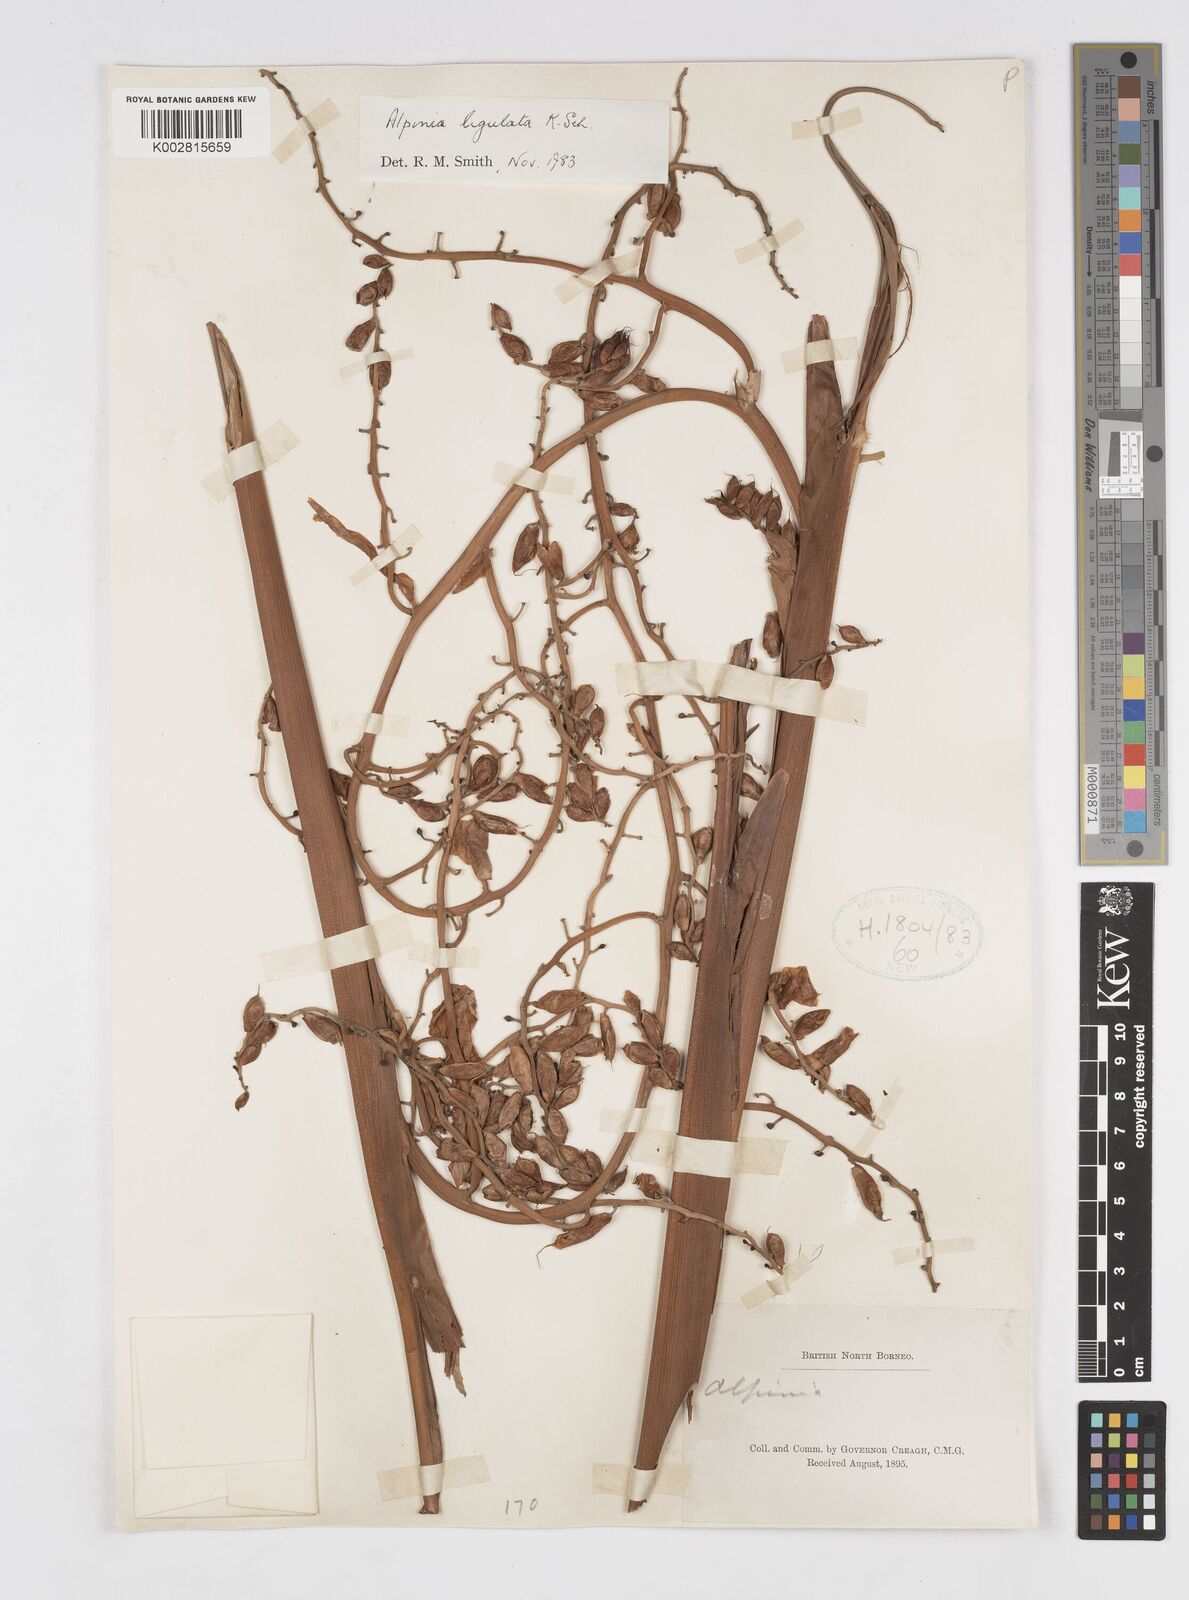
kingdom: Plantae
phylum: Tracheophyta
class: Liliopsida
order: Zingiberales
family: Zingiberaceae
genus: Alpinia
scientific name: Alpinia ligulata
